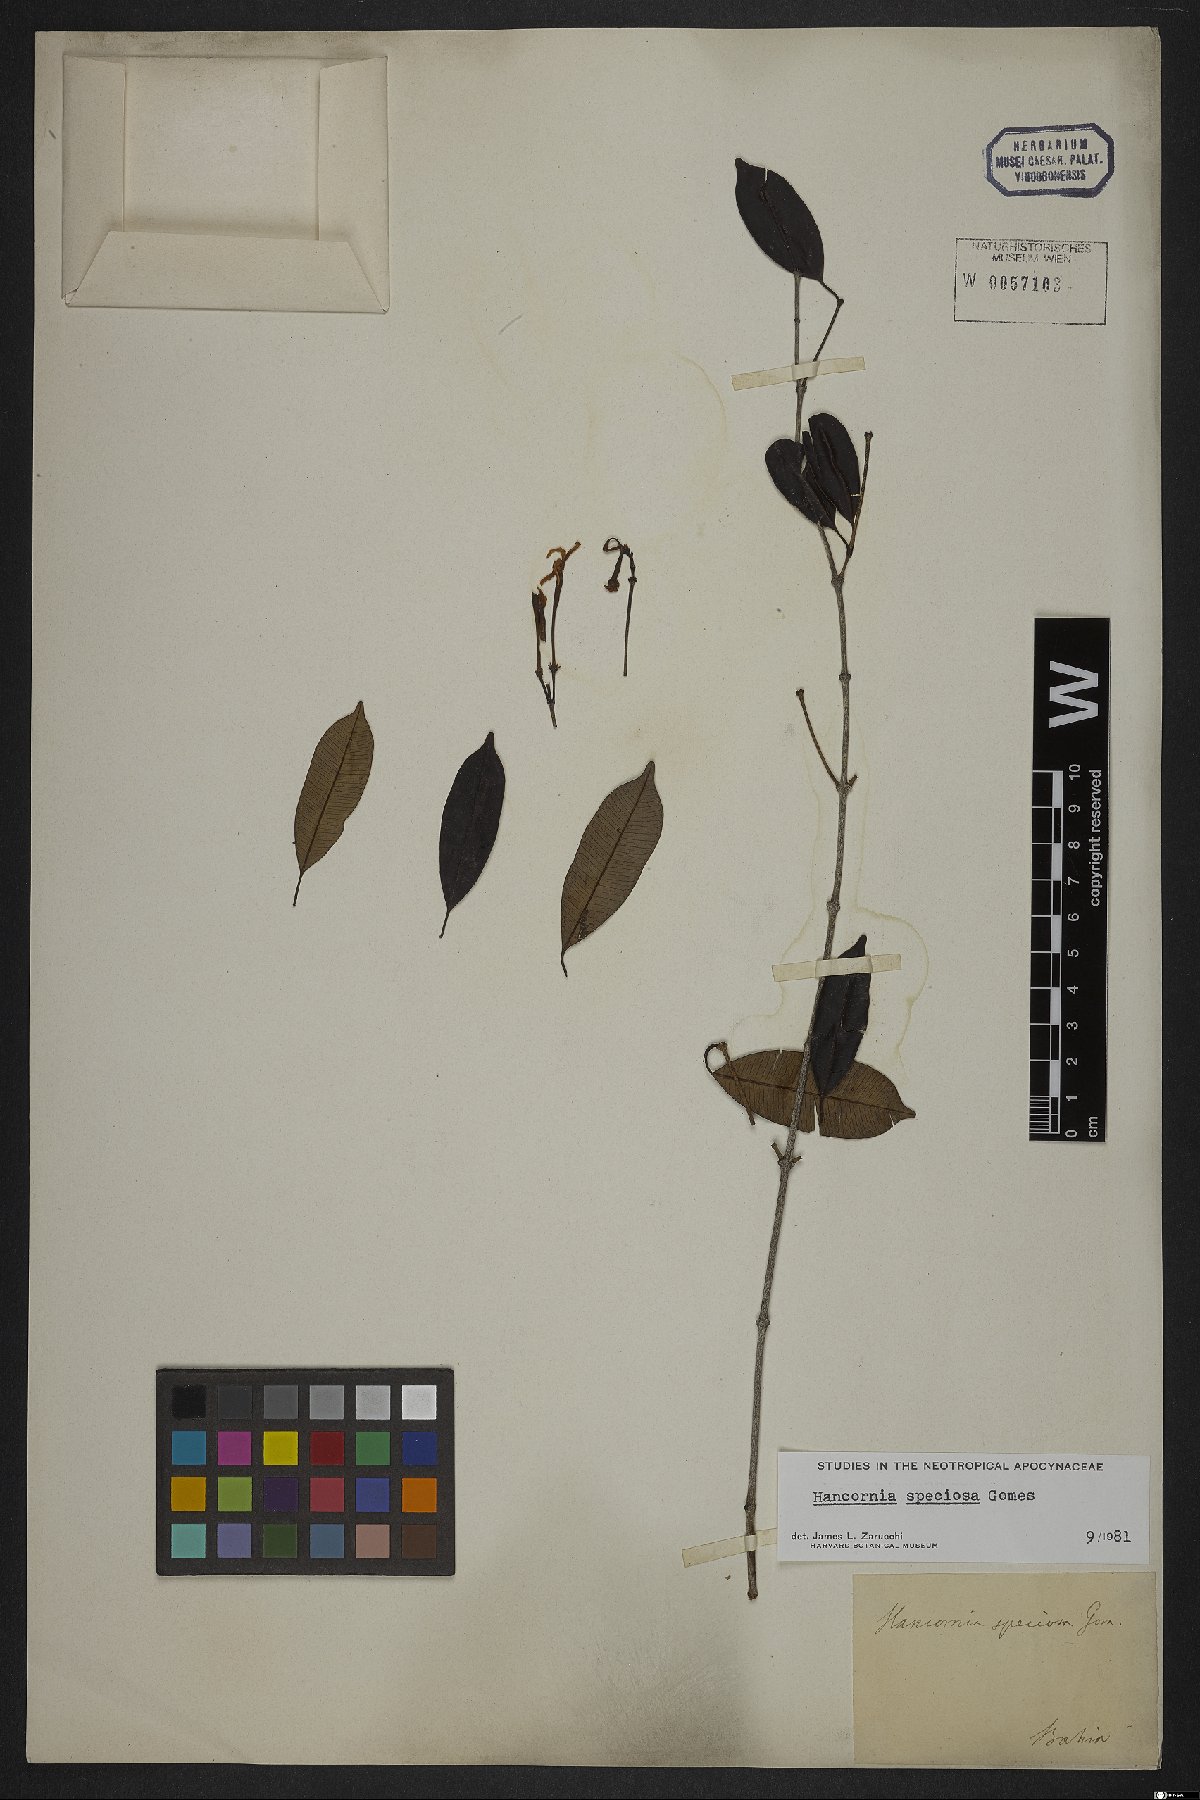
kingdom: Plantae
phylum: Tracheophyta
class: Magnoliopsida
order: Gentianales
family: Apocynaceae
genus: Hancornia
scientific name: Hancornia speciosa
